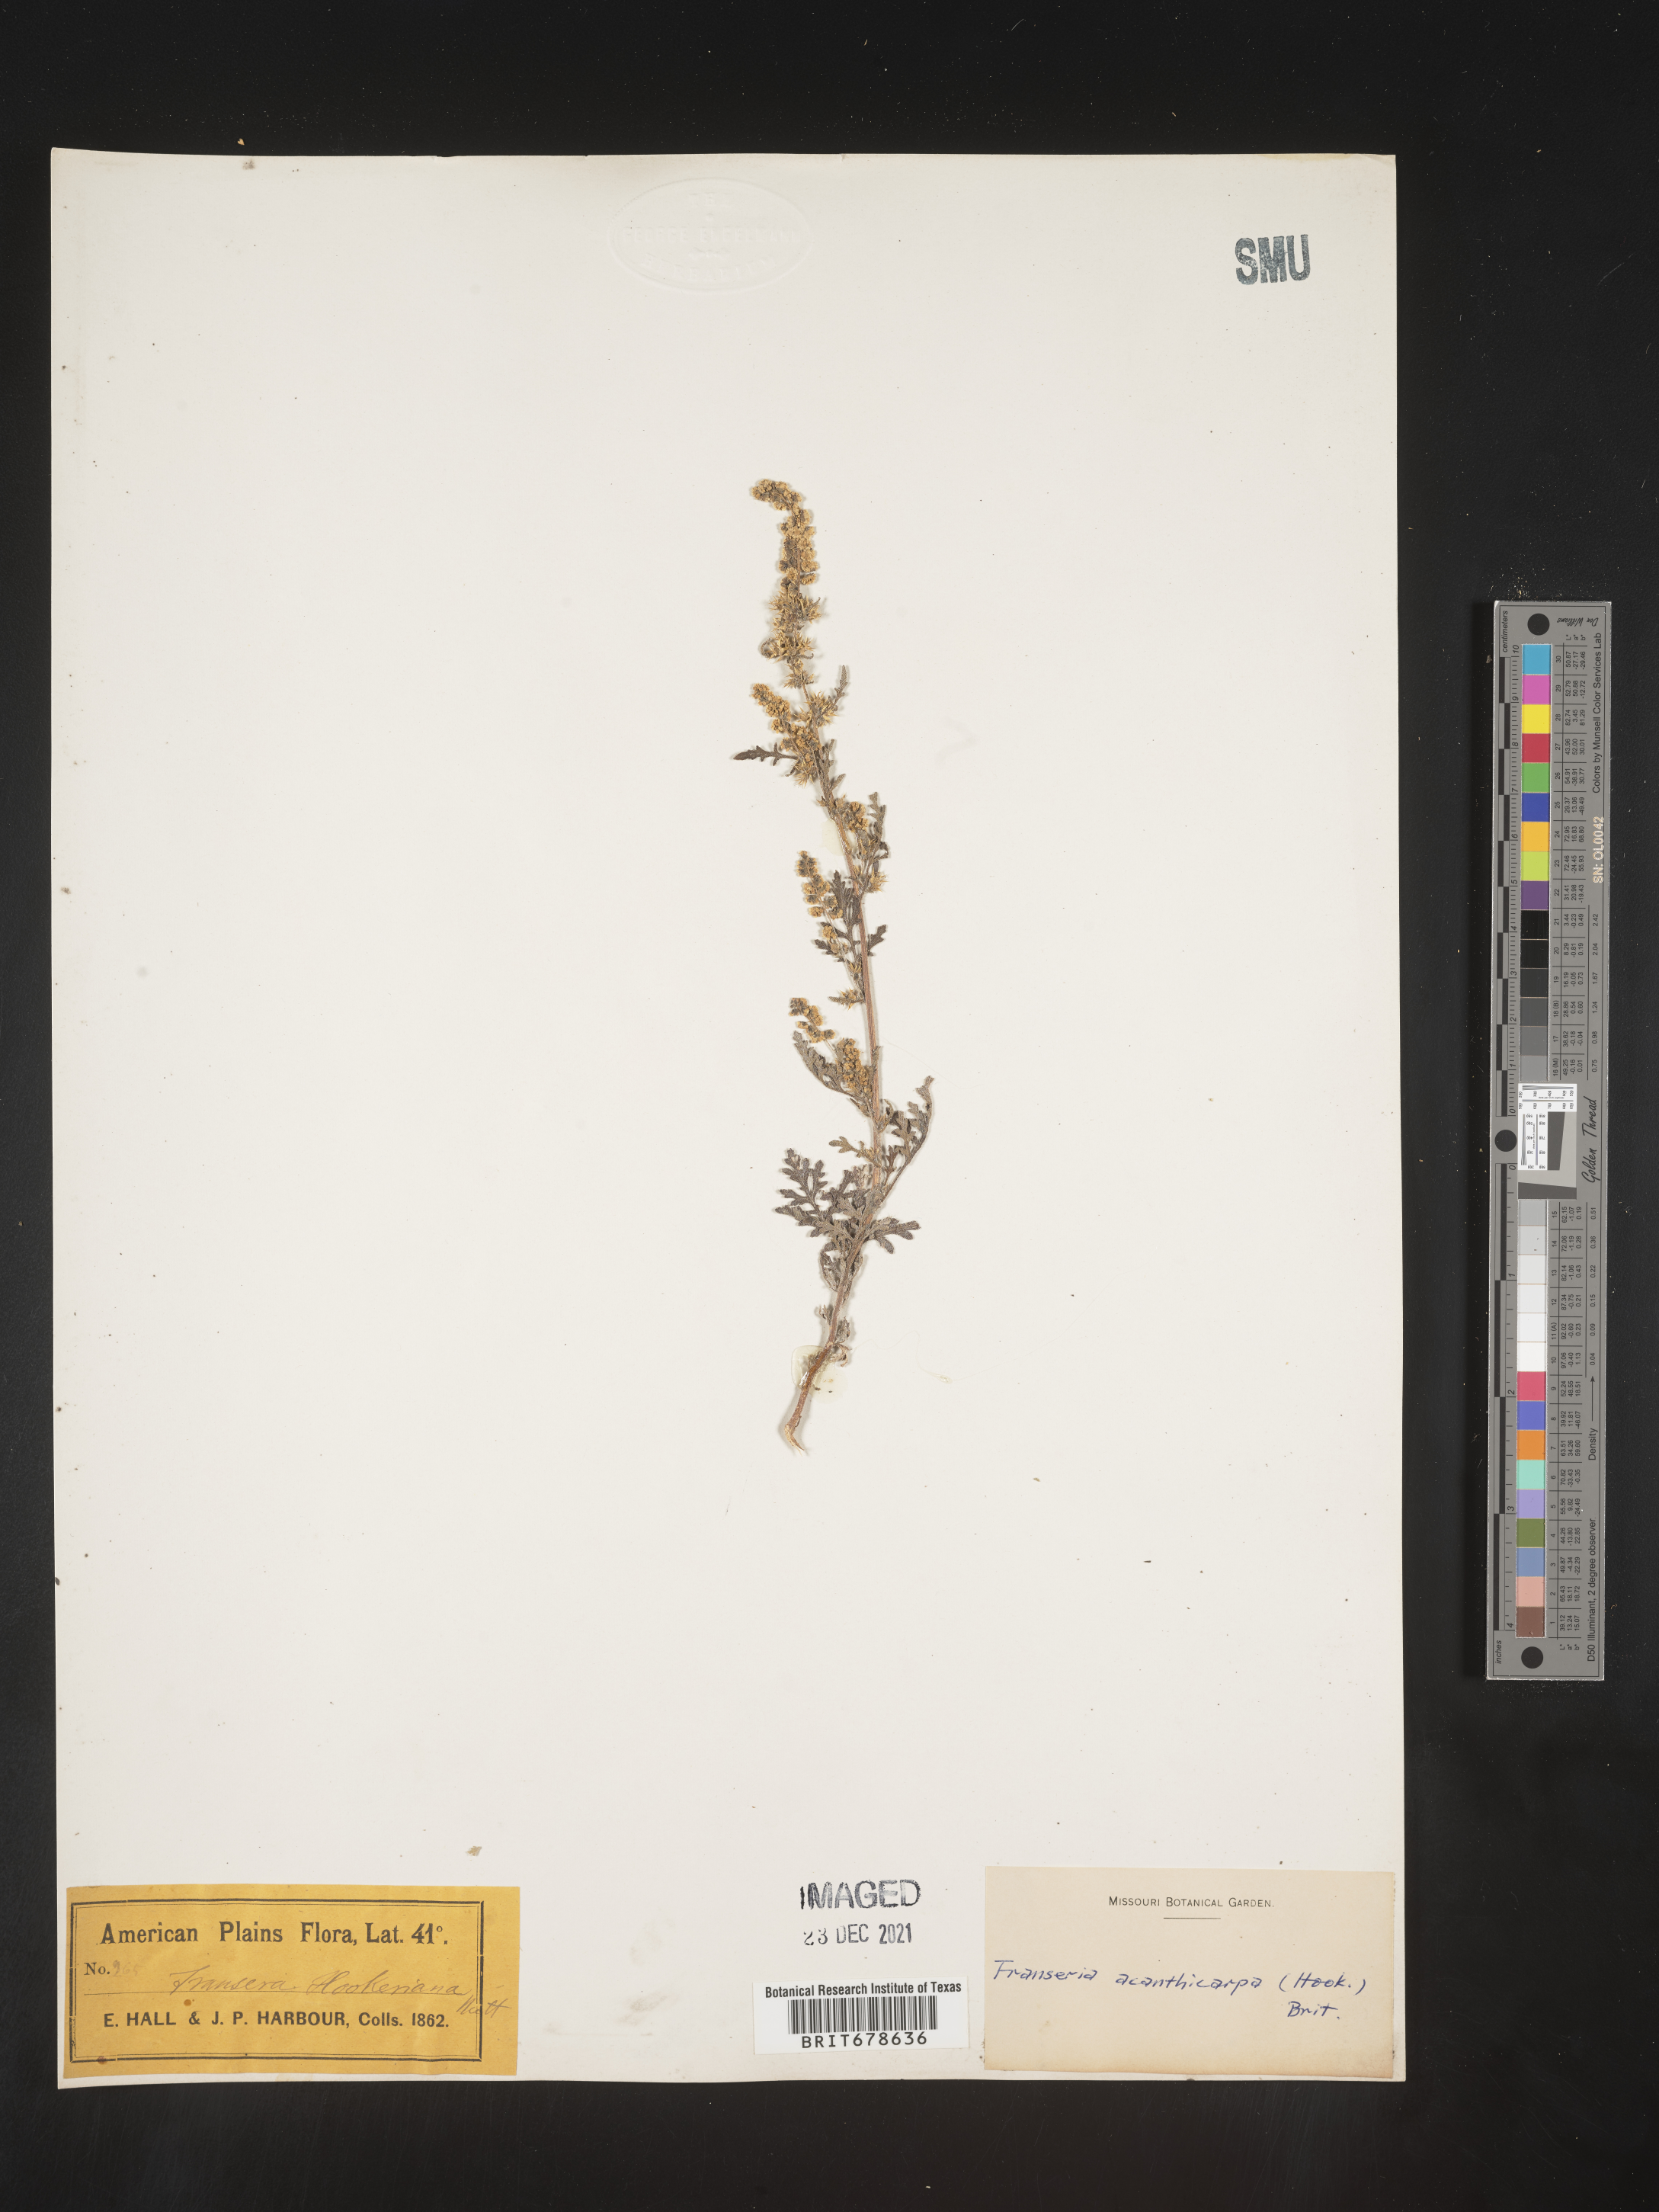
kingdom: Plantae
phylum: Tracheophyta
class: Magnoliopsida
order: Asterales
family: Asteraceae
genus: Ambrosia
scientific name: Ambrosia acanthicarpa
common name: Hooker's bur ragweed
